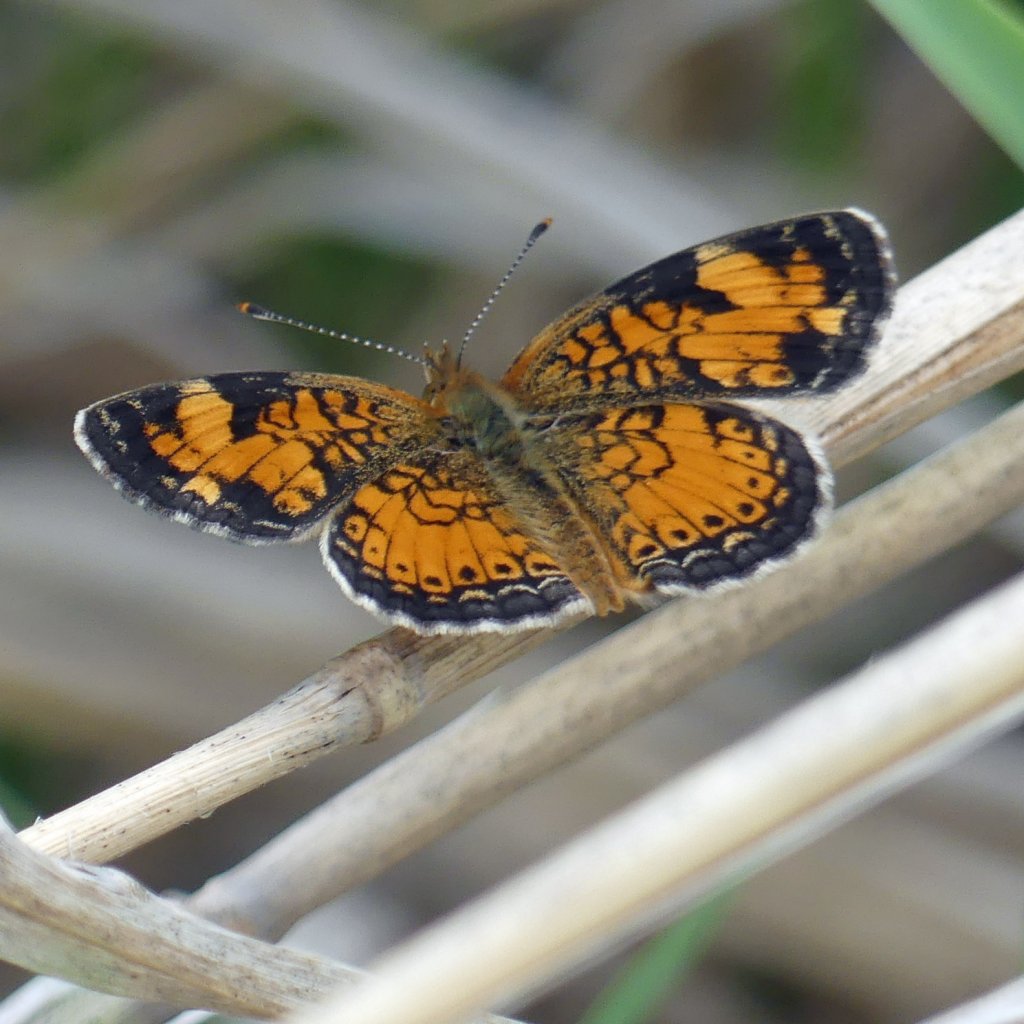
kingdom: Animalia
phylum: Arthropoda
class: Insecta
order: Lepidoptera
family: Nymphalidae
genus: Phyciodes
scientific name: Phyciodes tharos
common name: Pearl Crescent
